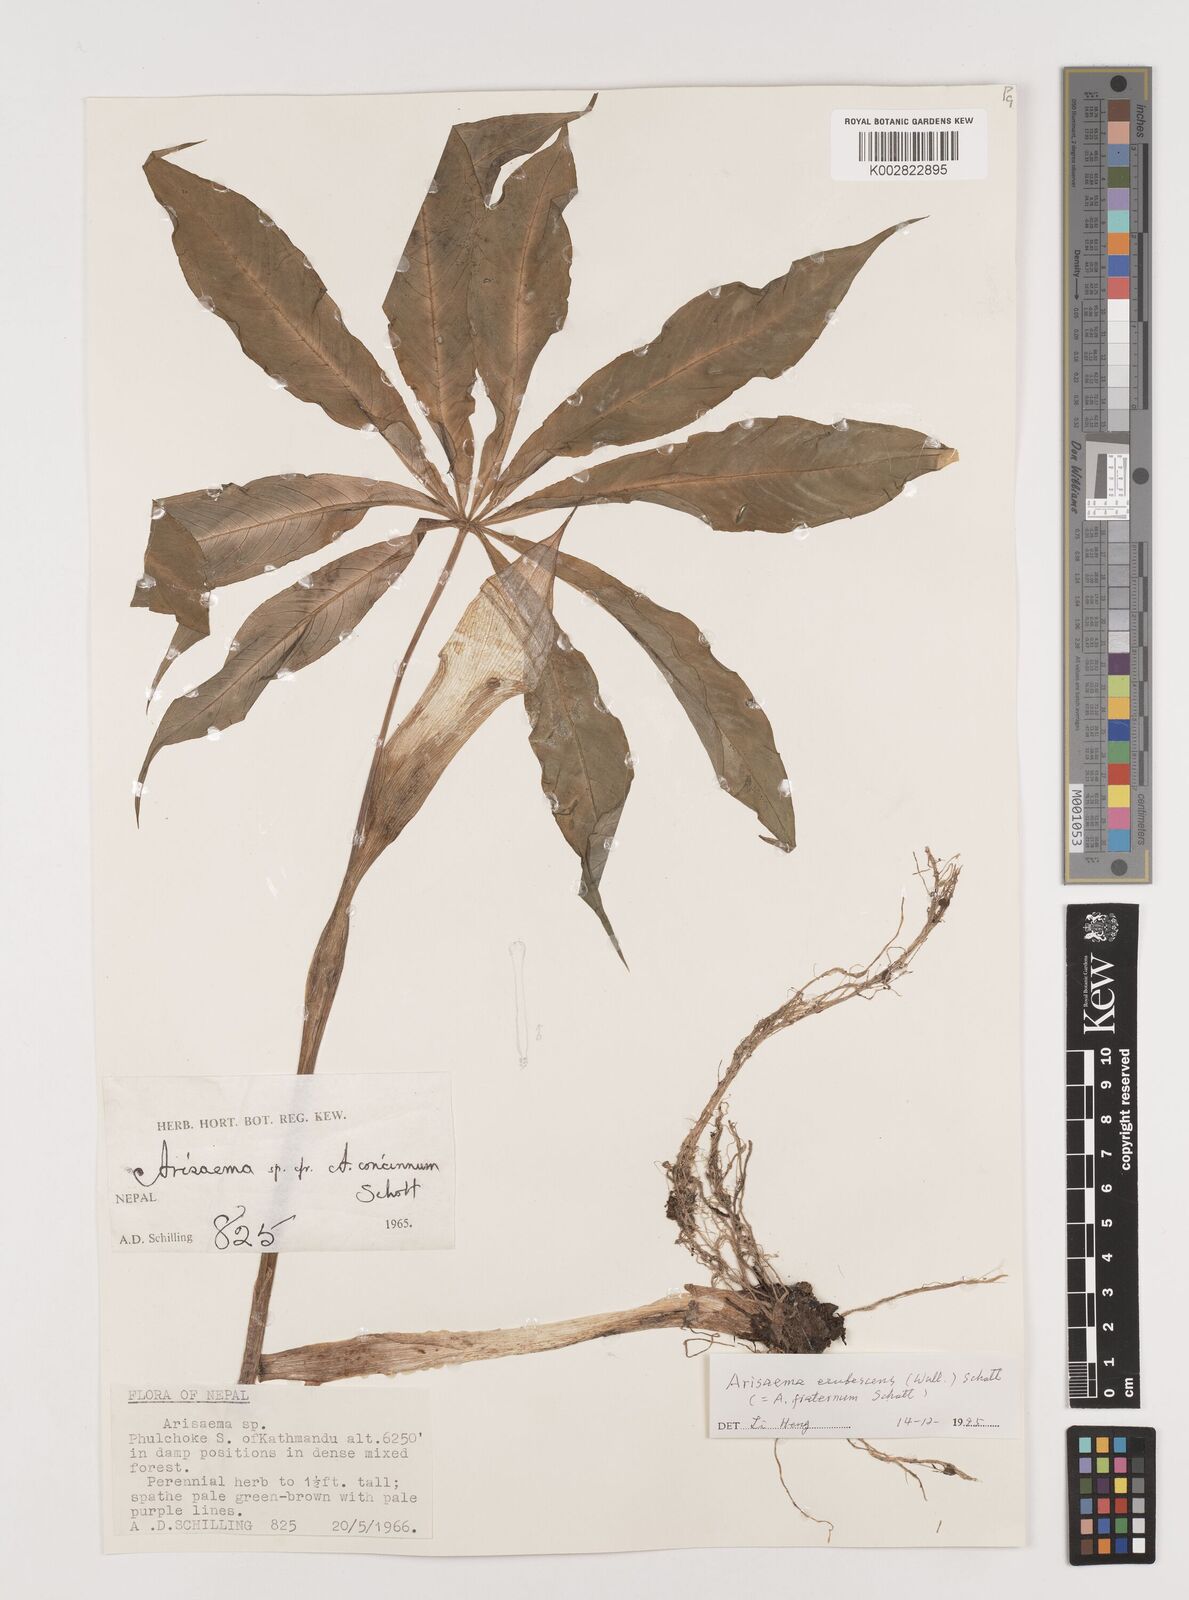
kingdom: Plantae
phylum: Tracheophyta
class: Liliopsida
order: Alismatales
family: Araceae
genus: Arisaema
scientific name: Arisaema erubescens
